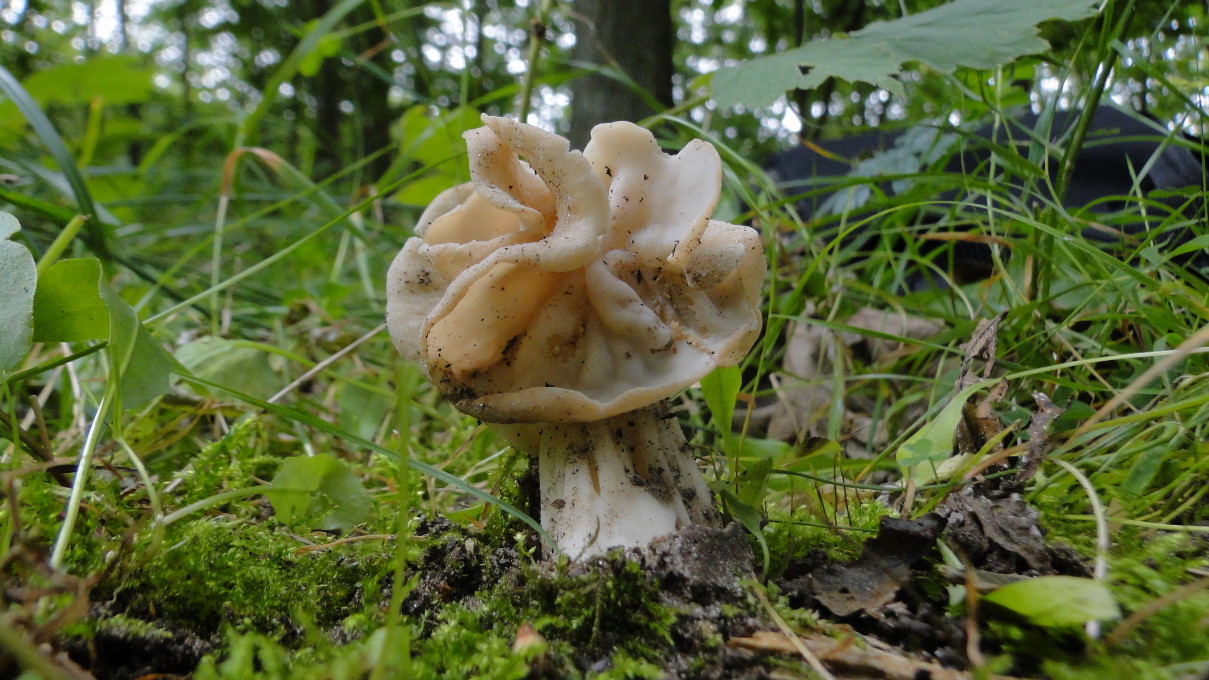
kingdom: Fungi
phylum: Ascomycota
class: Pezizomycetes
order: Pezizales
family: Helvellaceae
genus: Helvella
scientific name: Helvella crispa
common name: kruset foldhat
